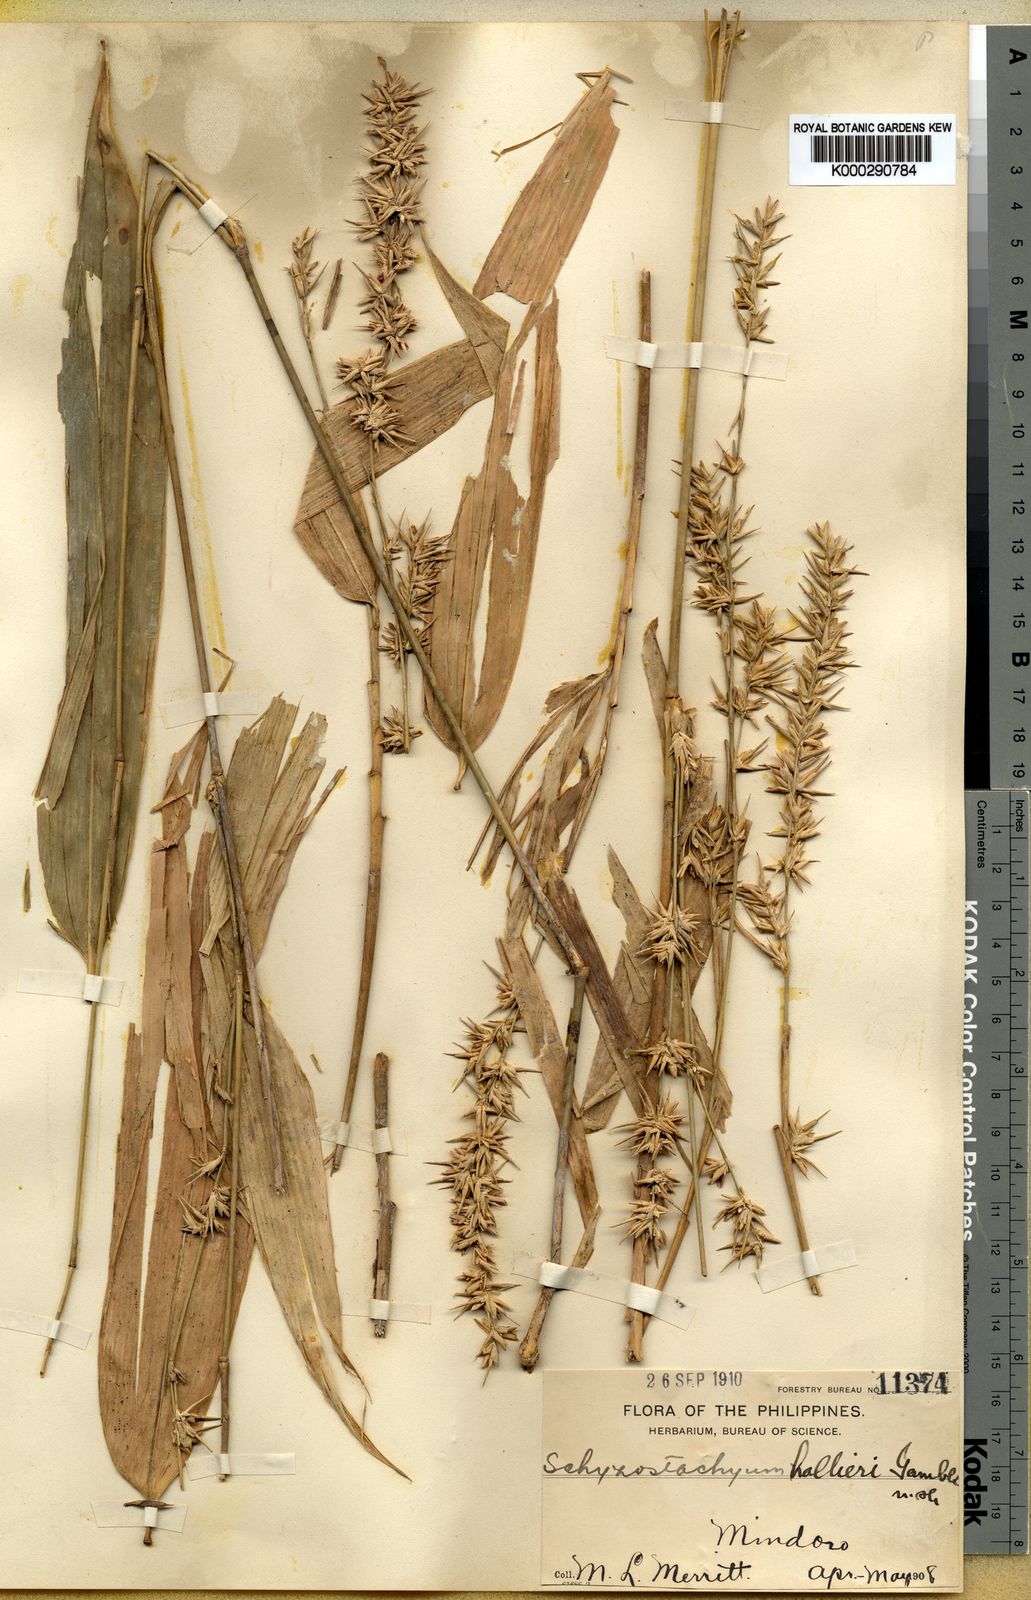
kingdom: Plantae
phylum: Tracheophyta
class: Liliopsida
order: Poales
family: Poaceae
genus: Schizostachyum
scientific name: Schizostachyum lima
